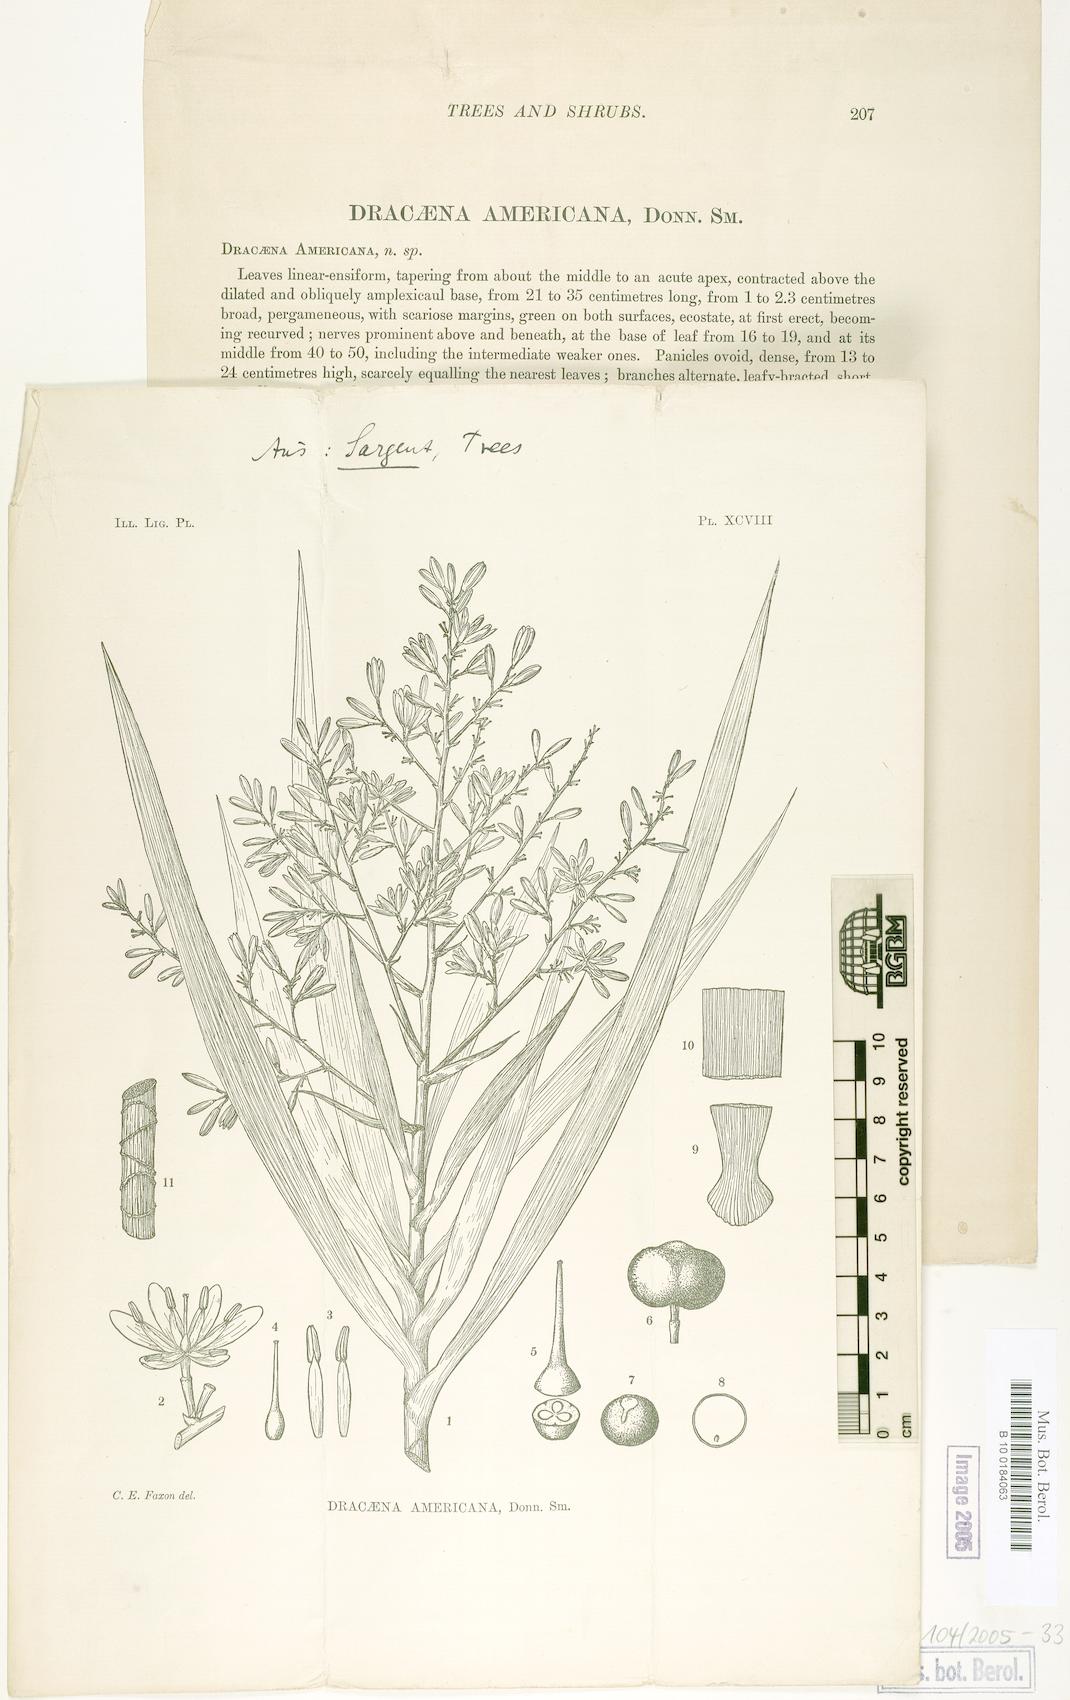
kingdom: Plantae
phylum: Tracheophyta
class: Liliopsida
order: Asparagales
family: Asparagaceae
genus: Dracaena
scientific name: Dracaena ghiesbreghtii
